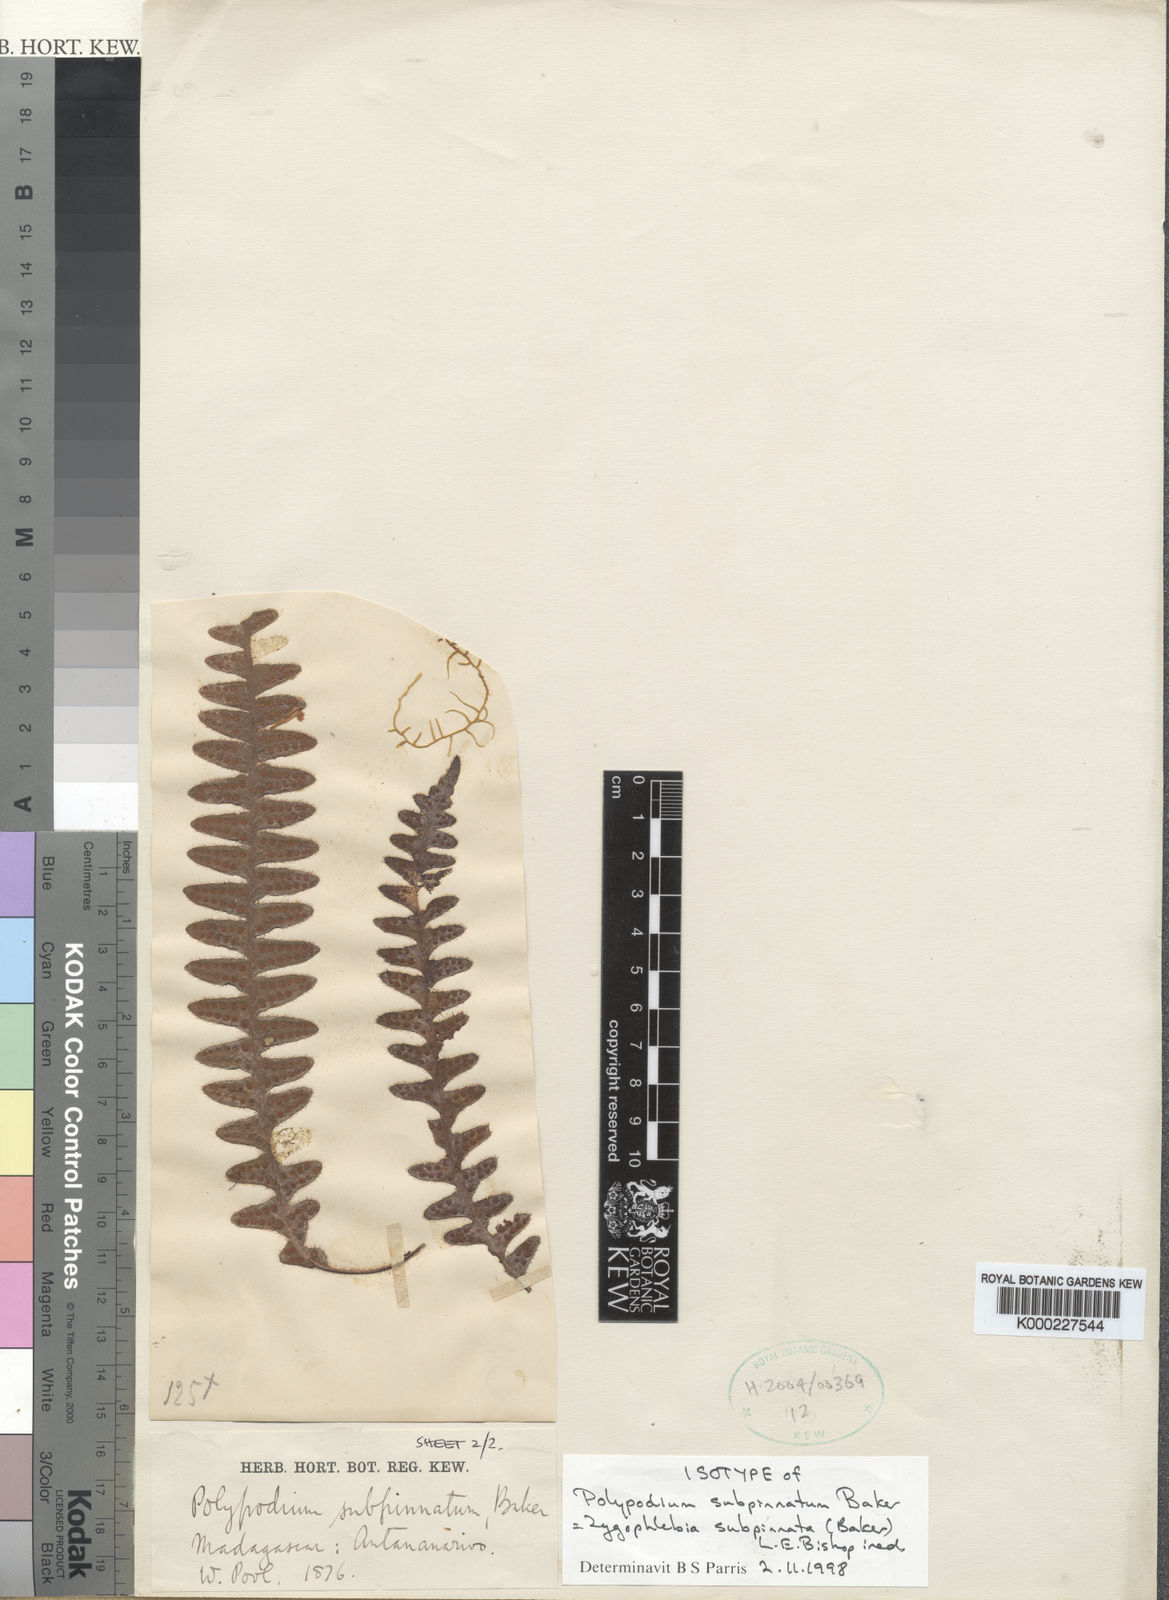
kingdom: Plantae
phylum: Tracheophyta
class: Polypodiopsida
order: Polypodiales
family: Polypodiaceae
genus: Enterosora
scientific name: Enterosora subpinnata
